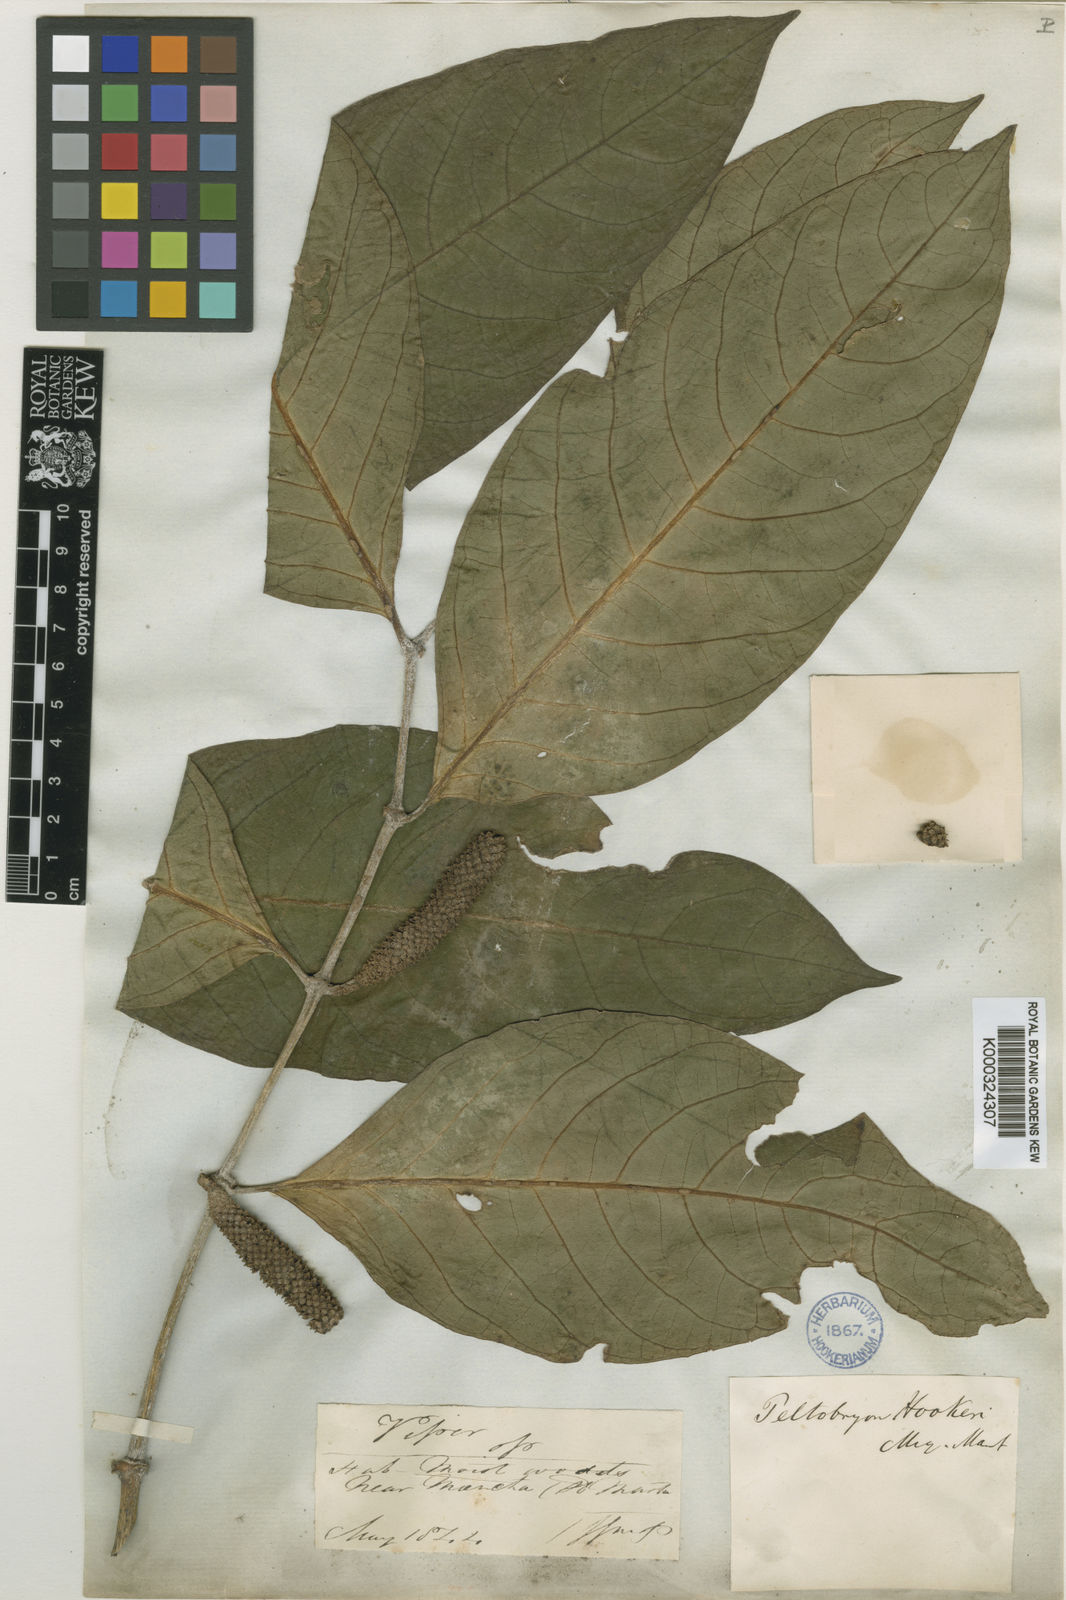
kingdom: Plantae
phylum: Tracheophyta
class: Magnoliopsida
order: Piperales
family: Piperaceae
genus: Piper
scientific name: Piper munchanum
